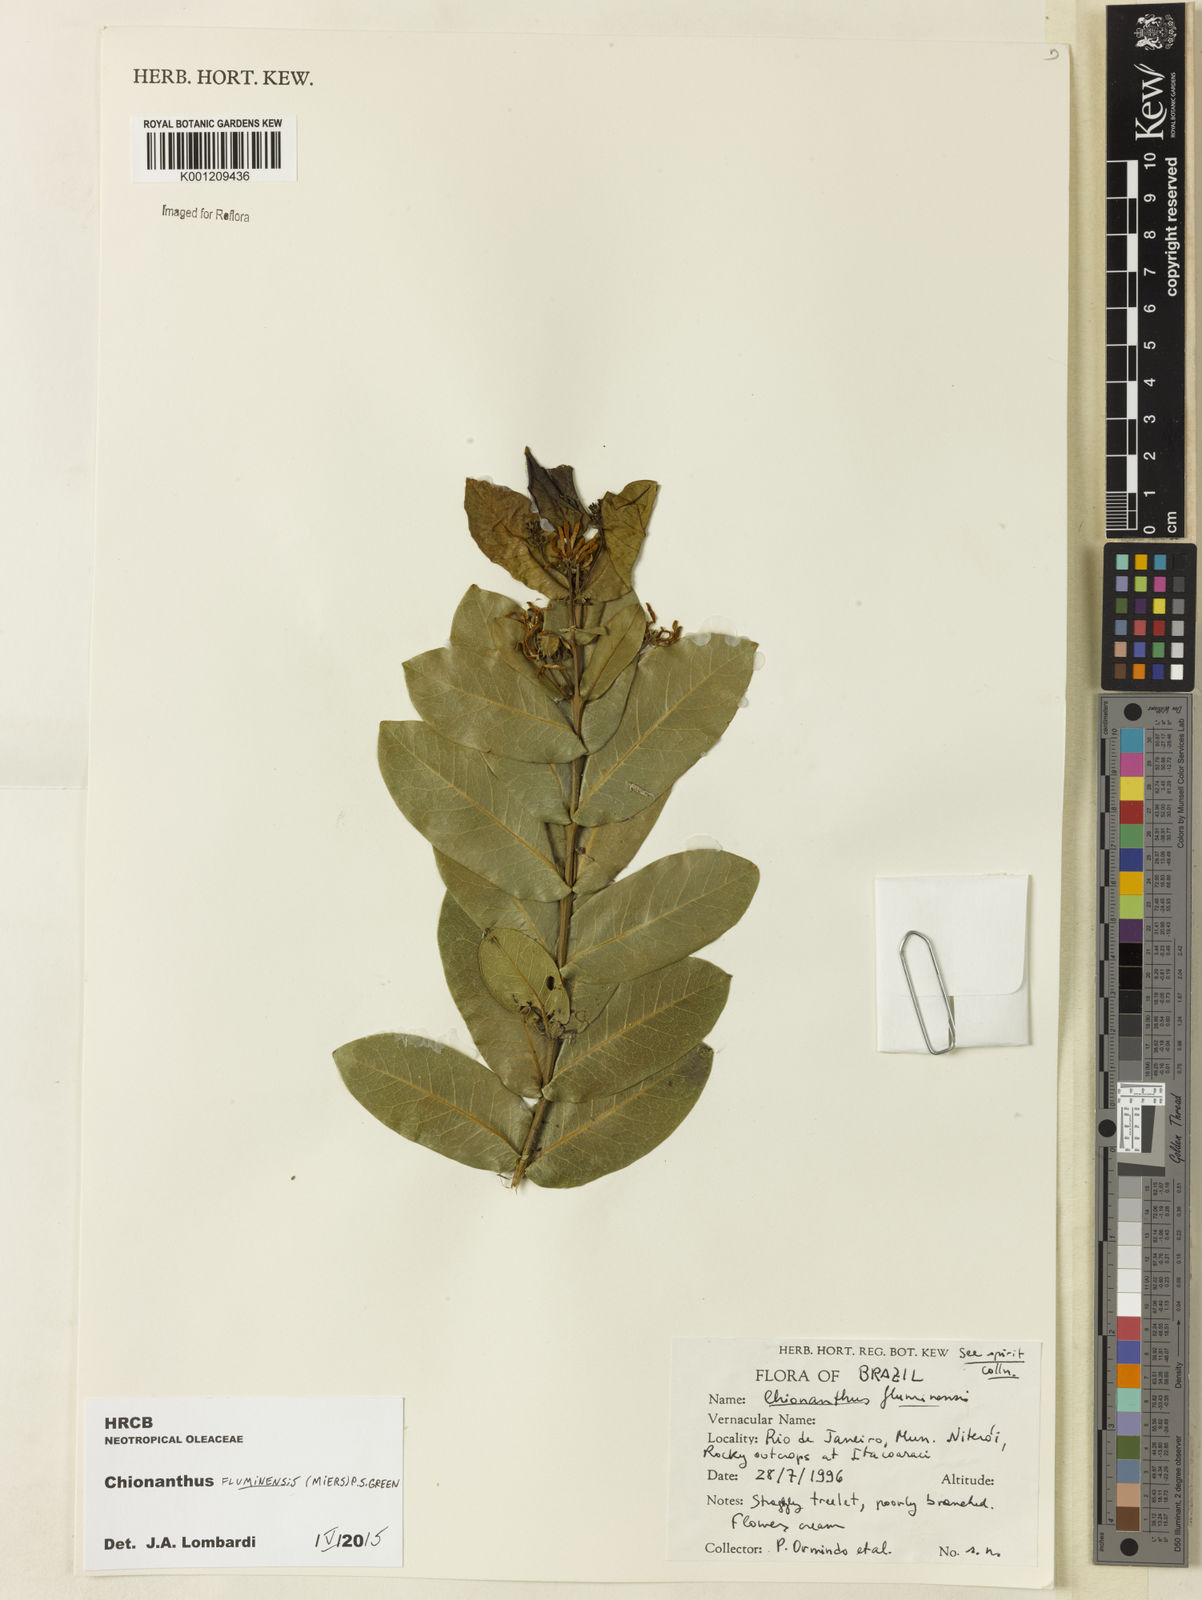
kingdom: Plantae
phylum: Tracheophyta
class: Magnoliopsida
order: Lamiales
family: Oleaceae
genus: Chionanthus
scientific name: Chionanthus fluminensis
